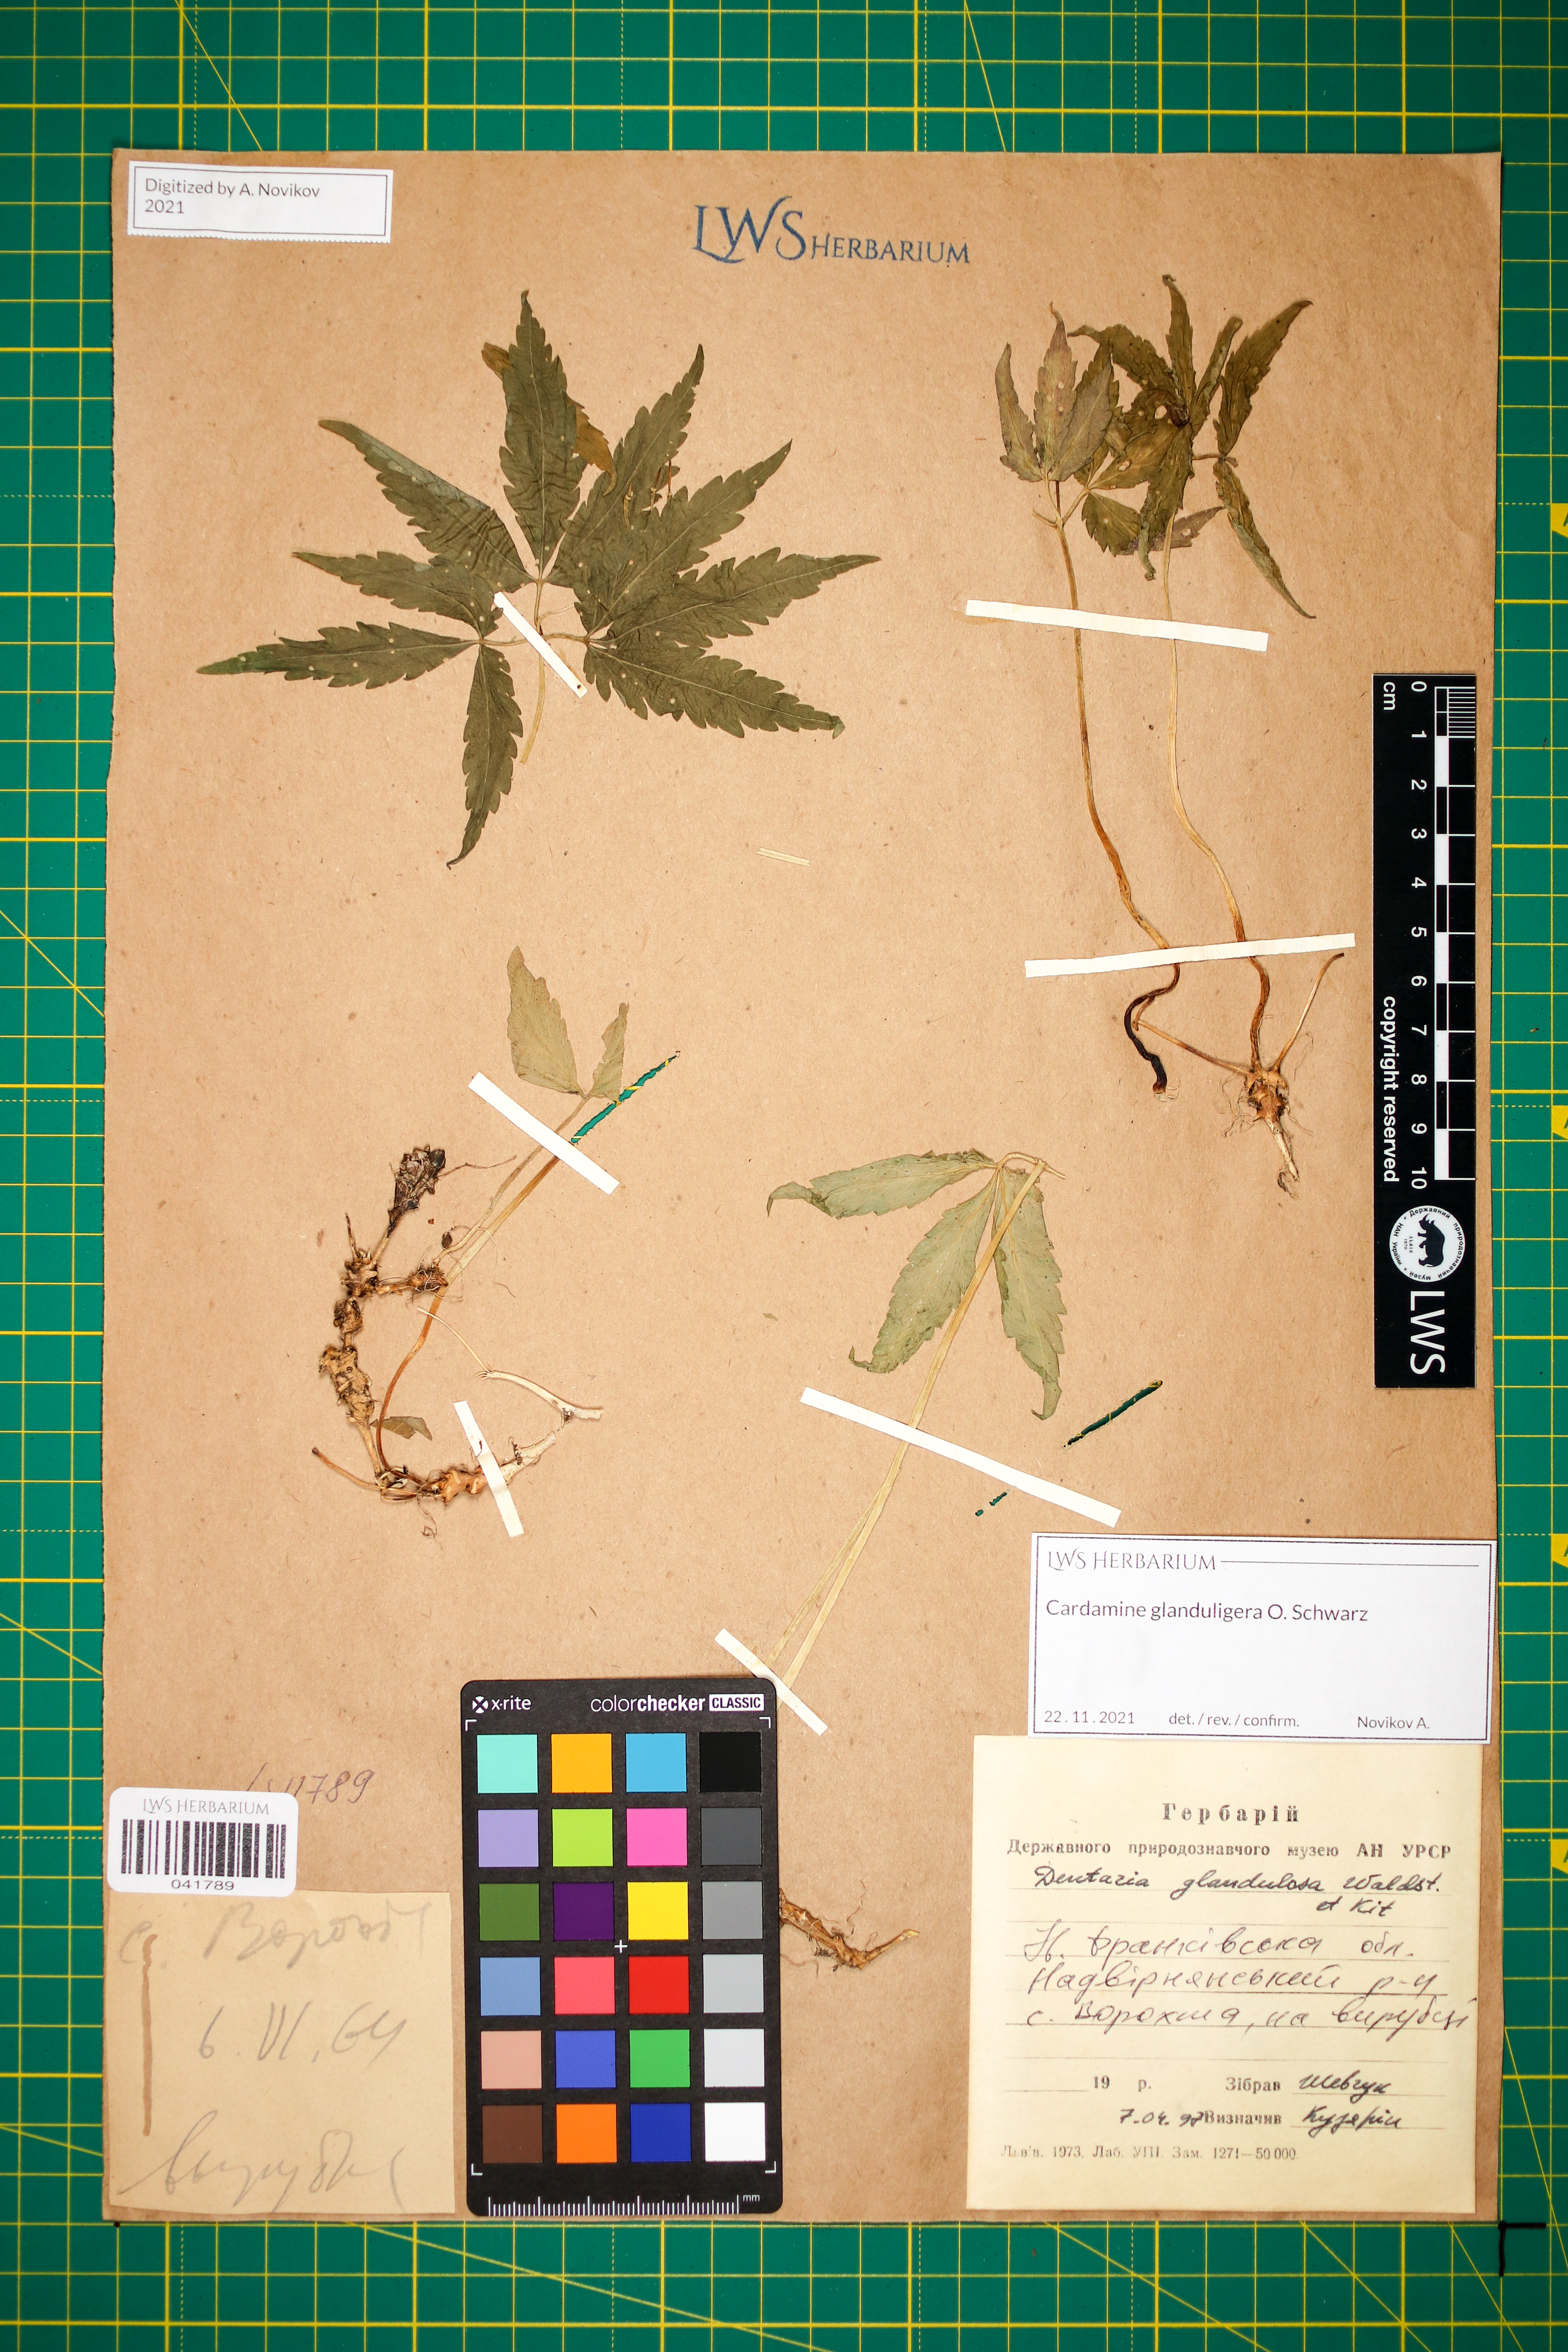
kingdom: Plantae
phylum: Tracheophyta
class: Magnoliopsida
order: Brassicales
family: Brassicaceae
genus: Cardamine
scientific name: Cardamine glanduligera
